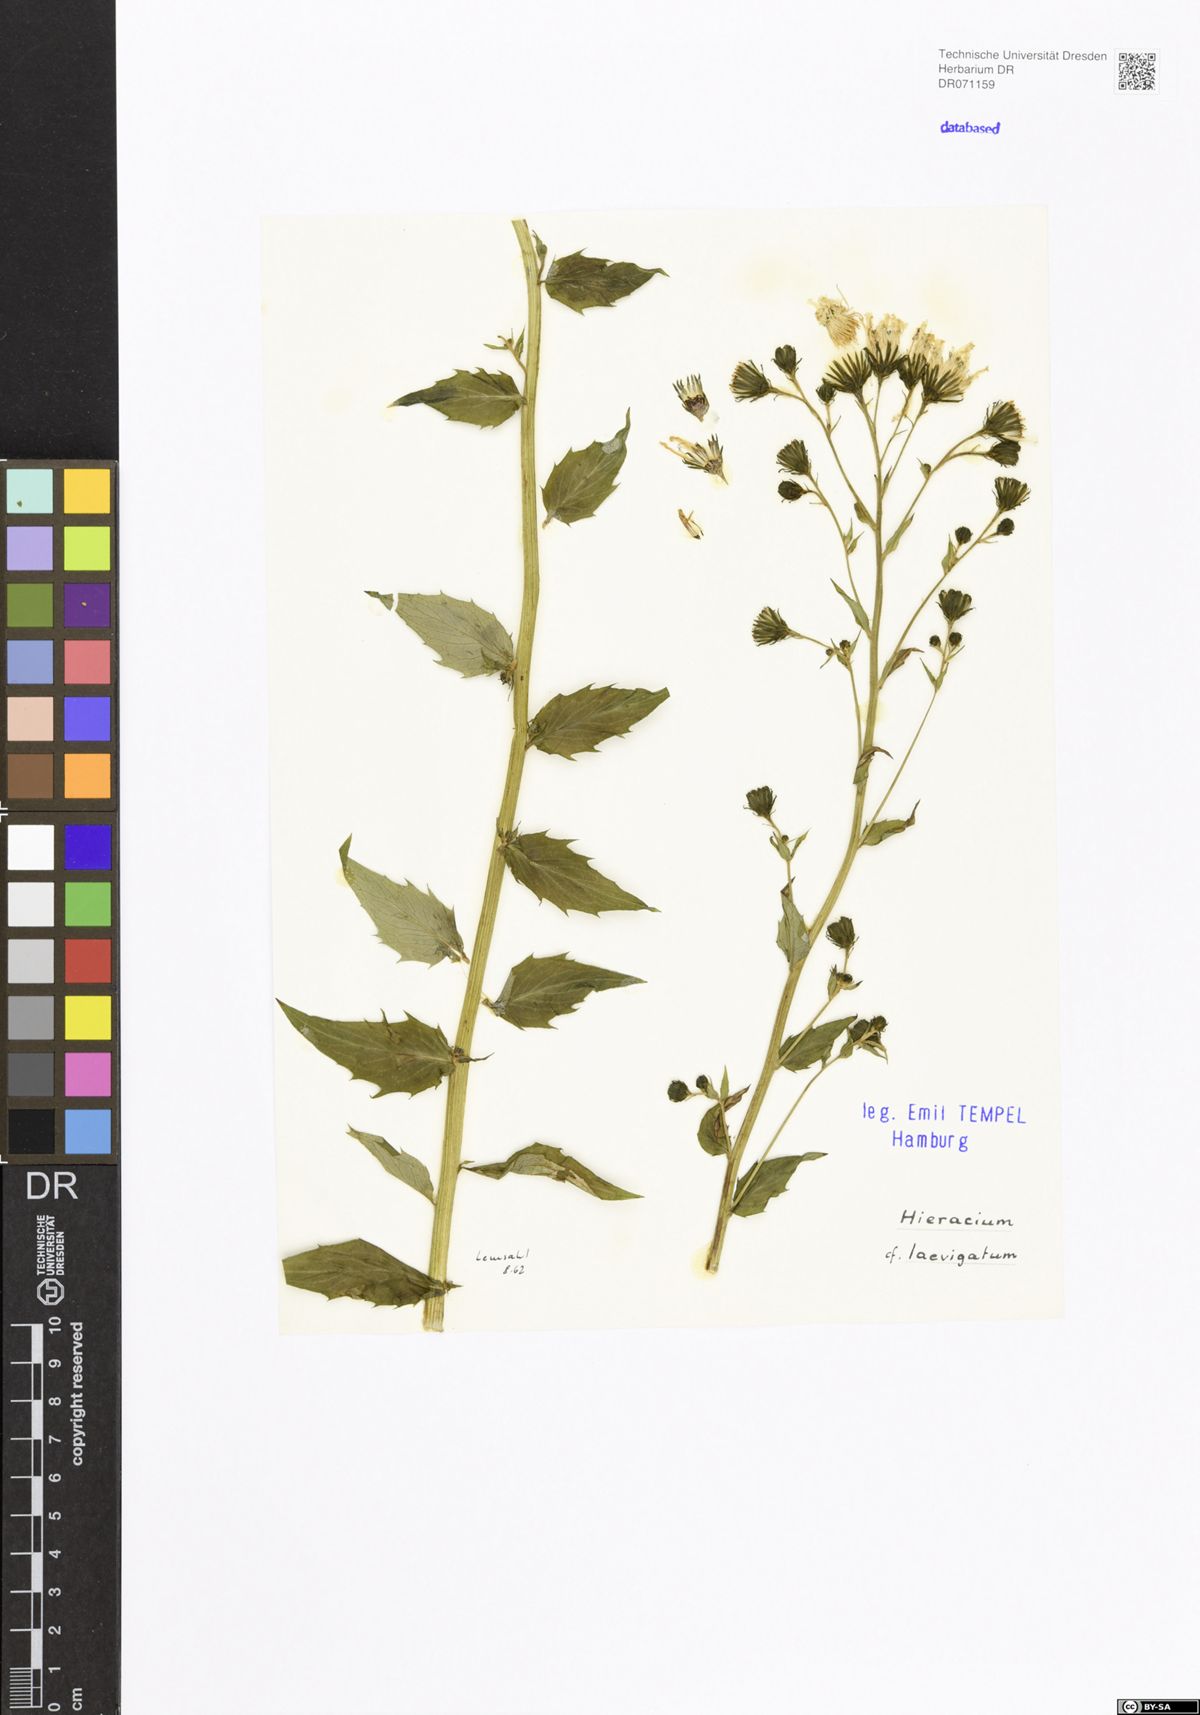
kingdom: Plantae
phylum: Tracheophyta
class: Magnoliopsida
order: Asterales
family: Asteraceae
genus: Hieracium
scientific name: Hieracium laevigatum
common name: Smooth hawkweed
